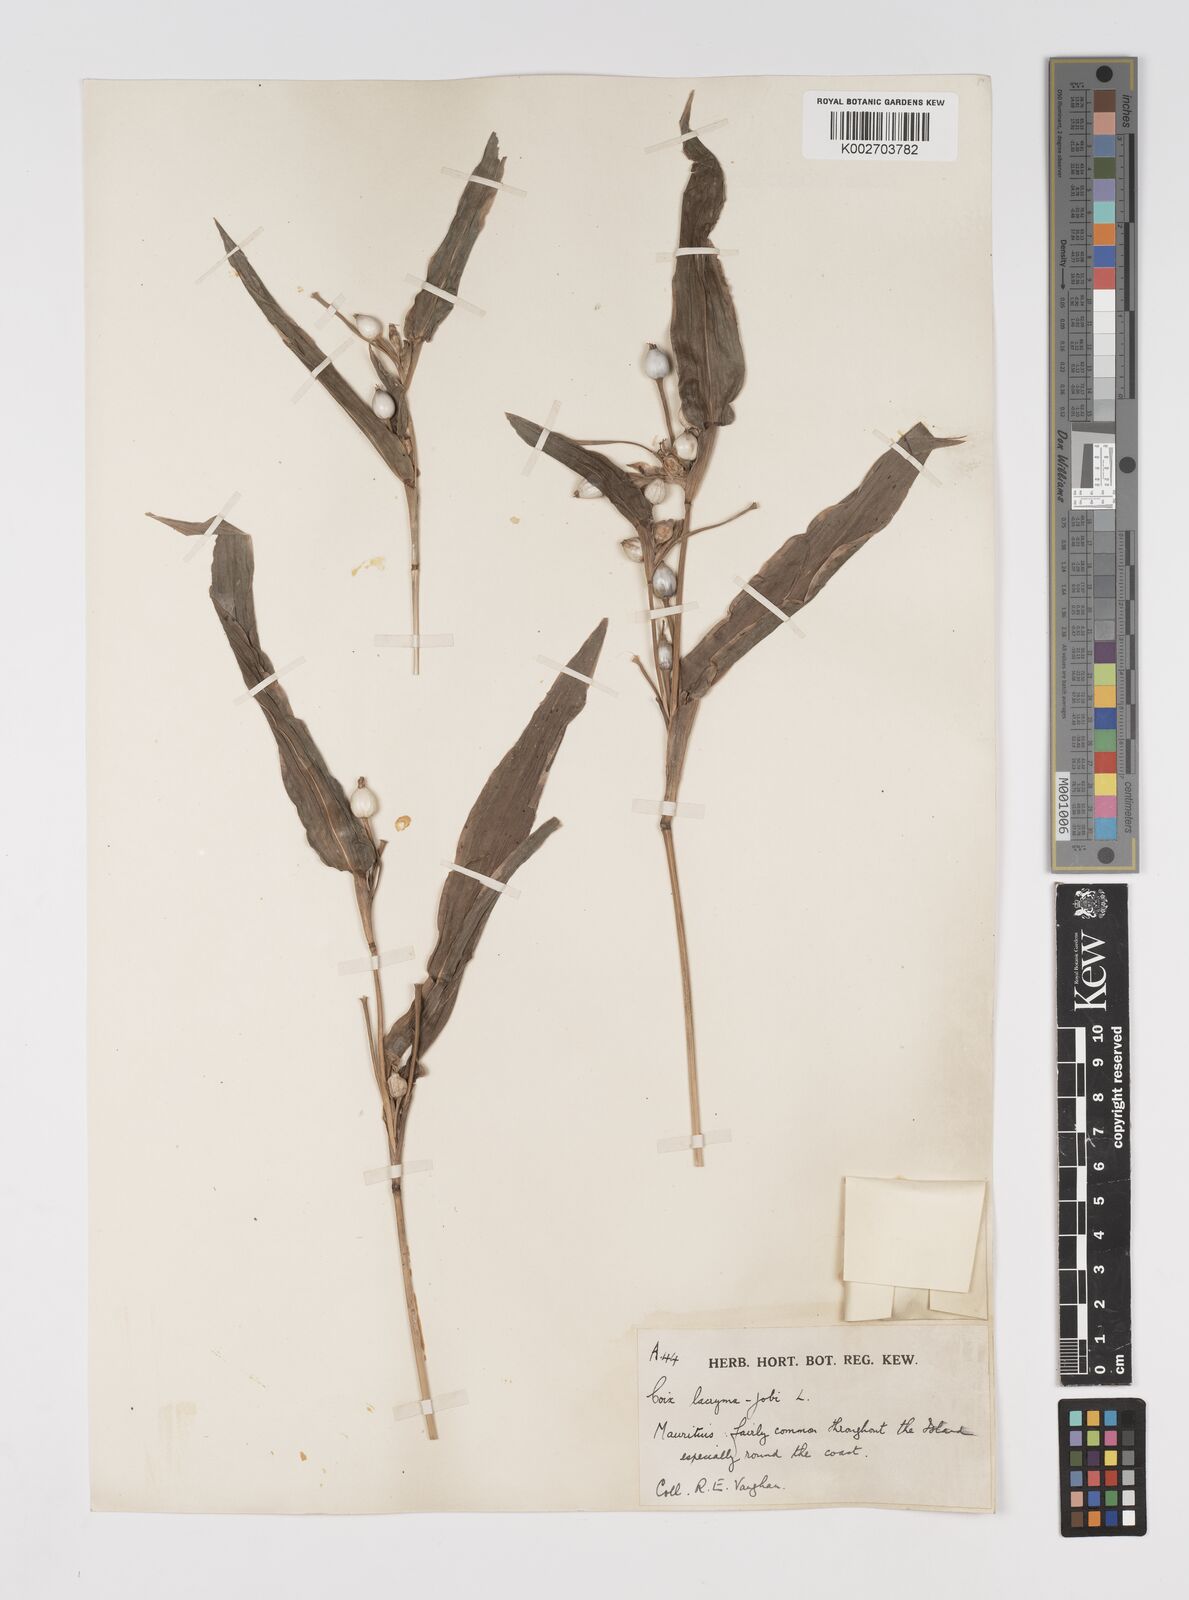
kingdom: Plantae
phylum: Tracheophyta
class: Liliopsida
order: Poales
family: Poaceae
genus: Coix
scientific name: Coix lacryma-jobi
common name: Job's tears
